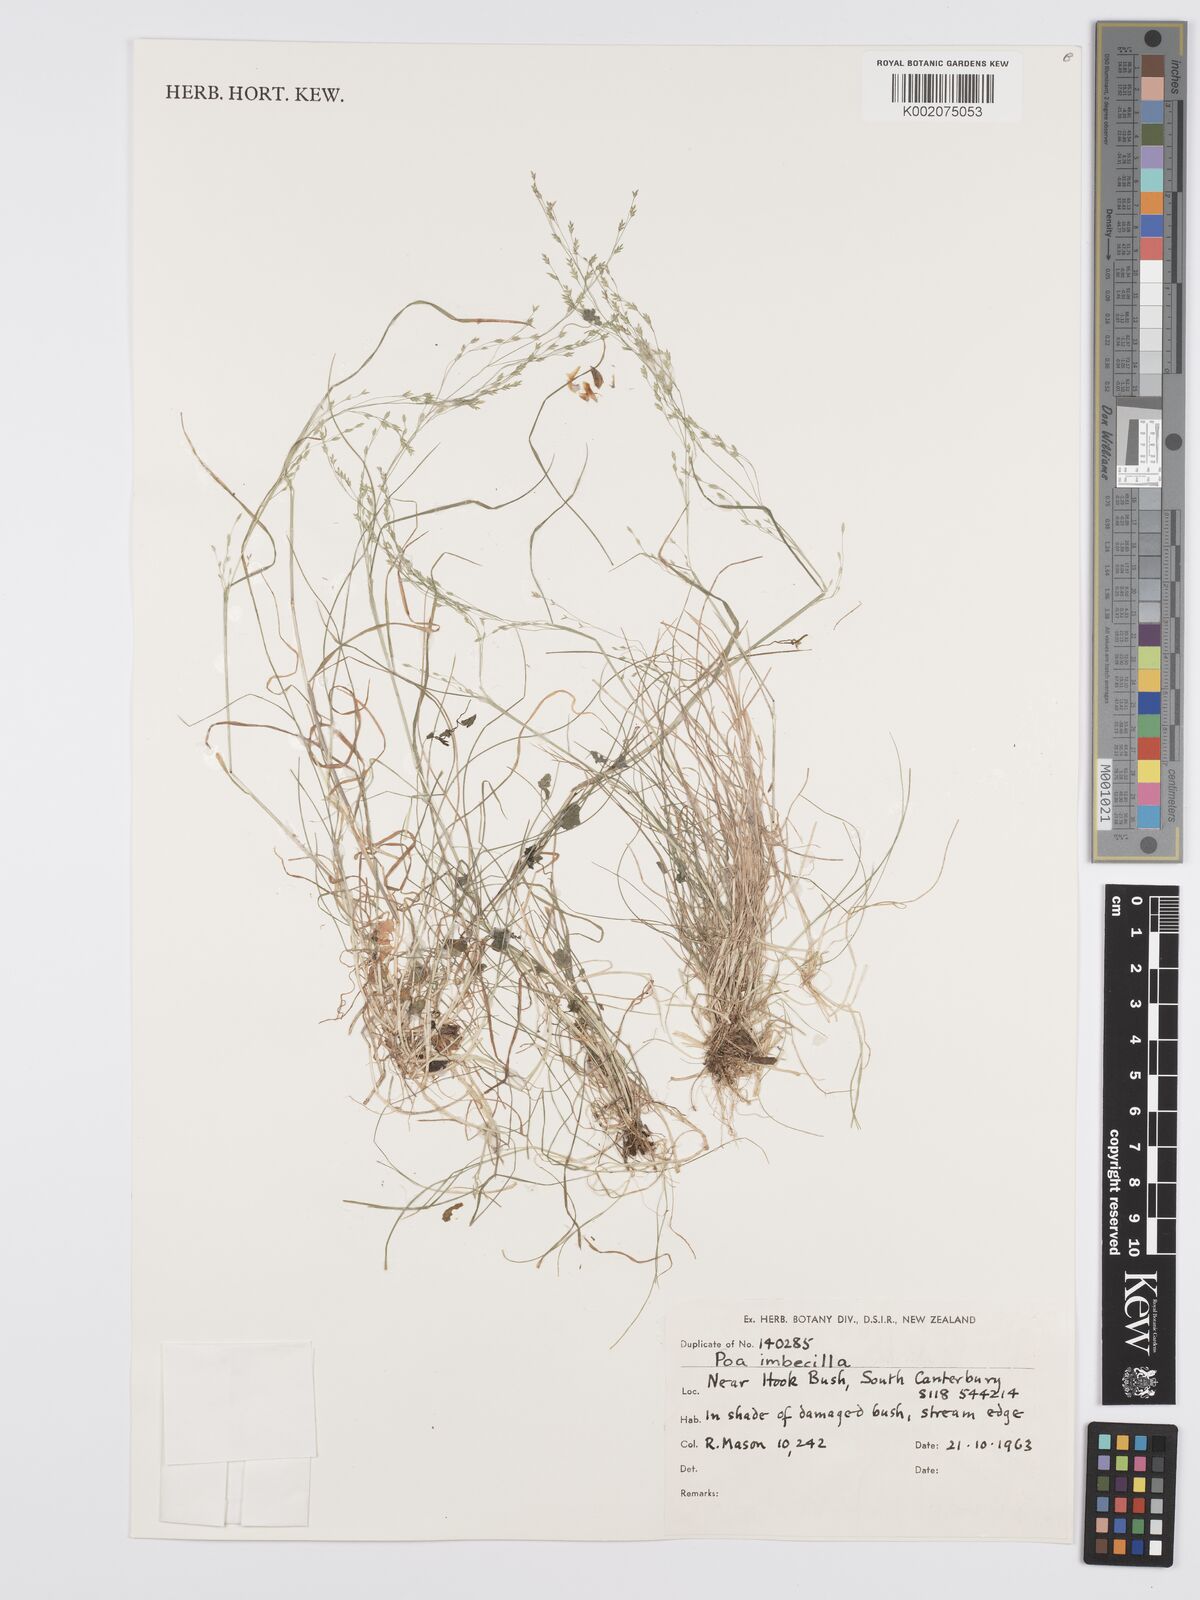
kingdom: Plantae
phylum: Tracheophyta
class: Liliopsida
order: Poales
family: Poaceae
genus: Poa
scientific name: Poa imbecilla
